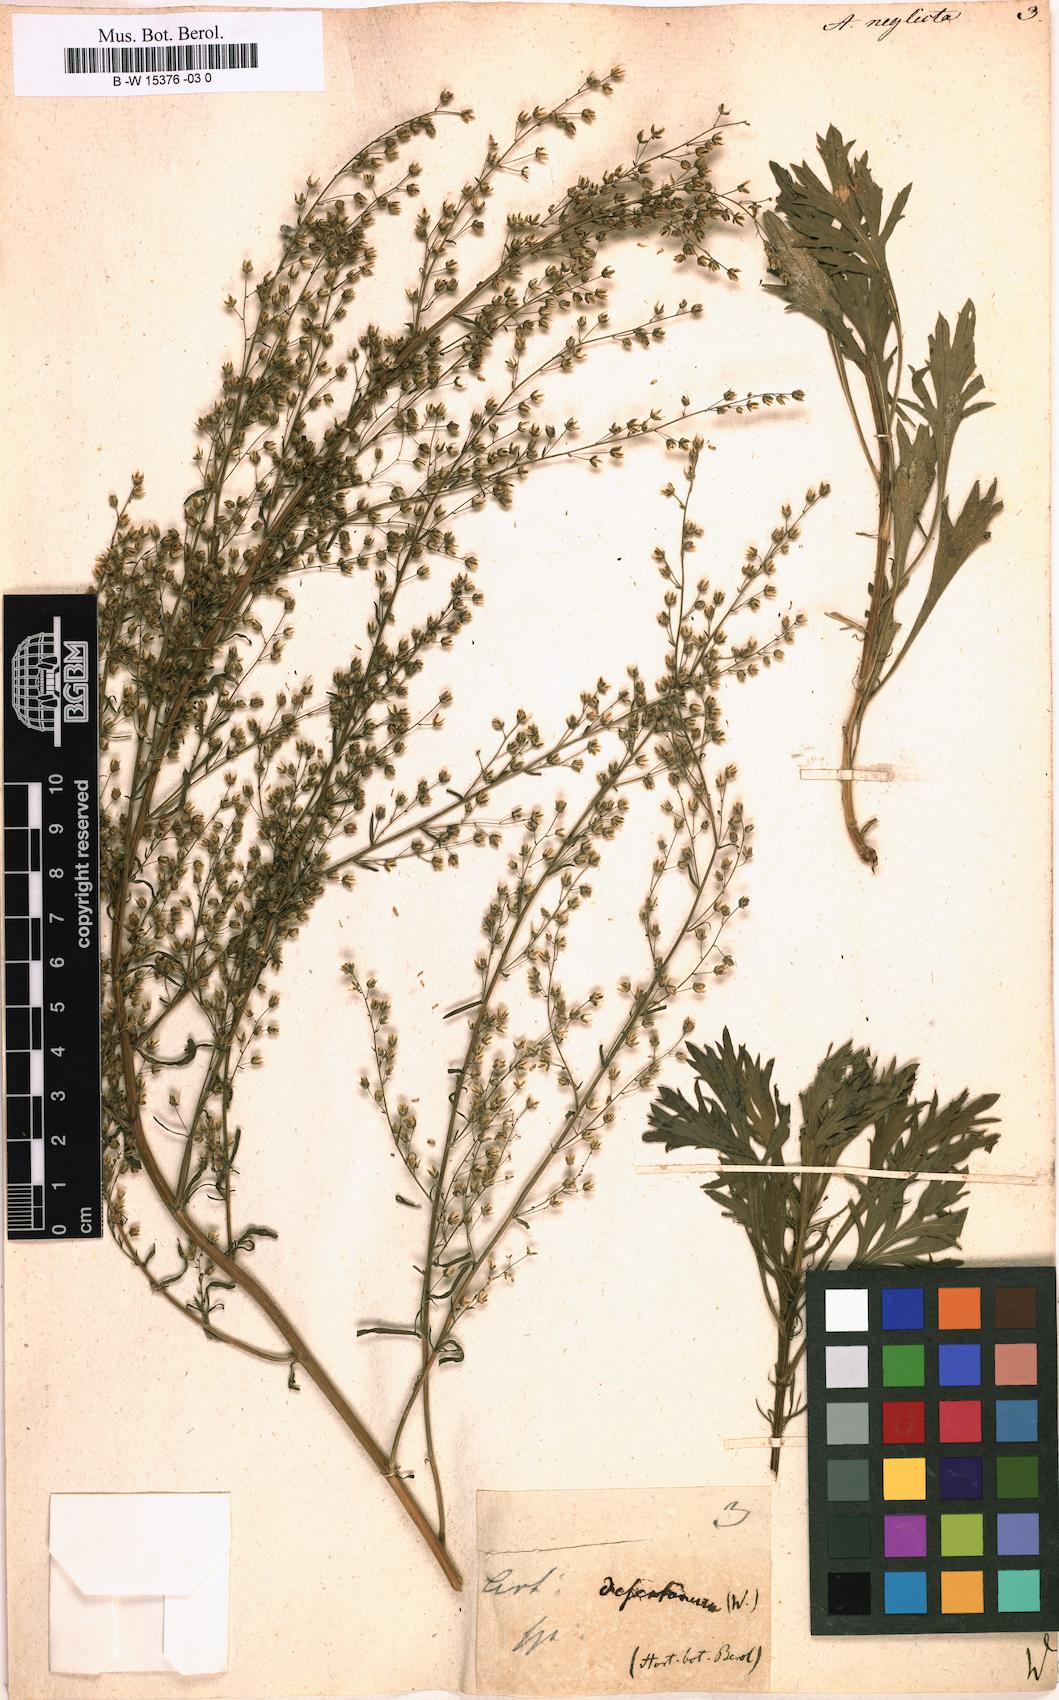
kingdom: Plantae
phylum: Tracheophyta
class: Magnoliopsida
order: Asterales
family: Asteraceae
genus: Artemisia
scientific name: Artemisia desertorum
